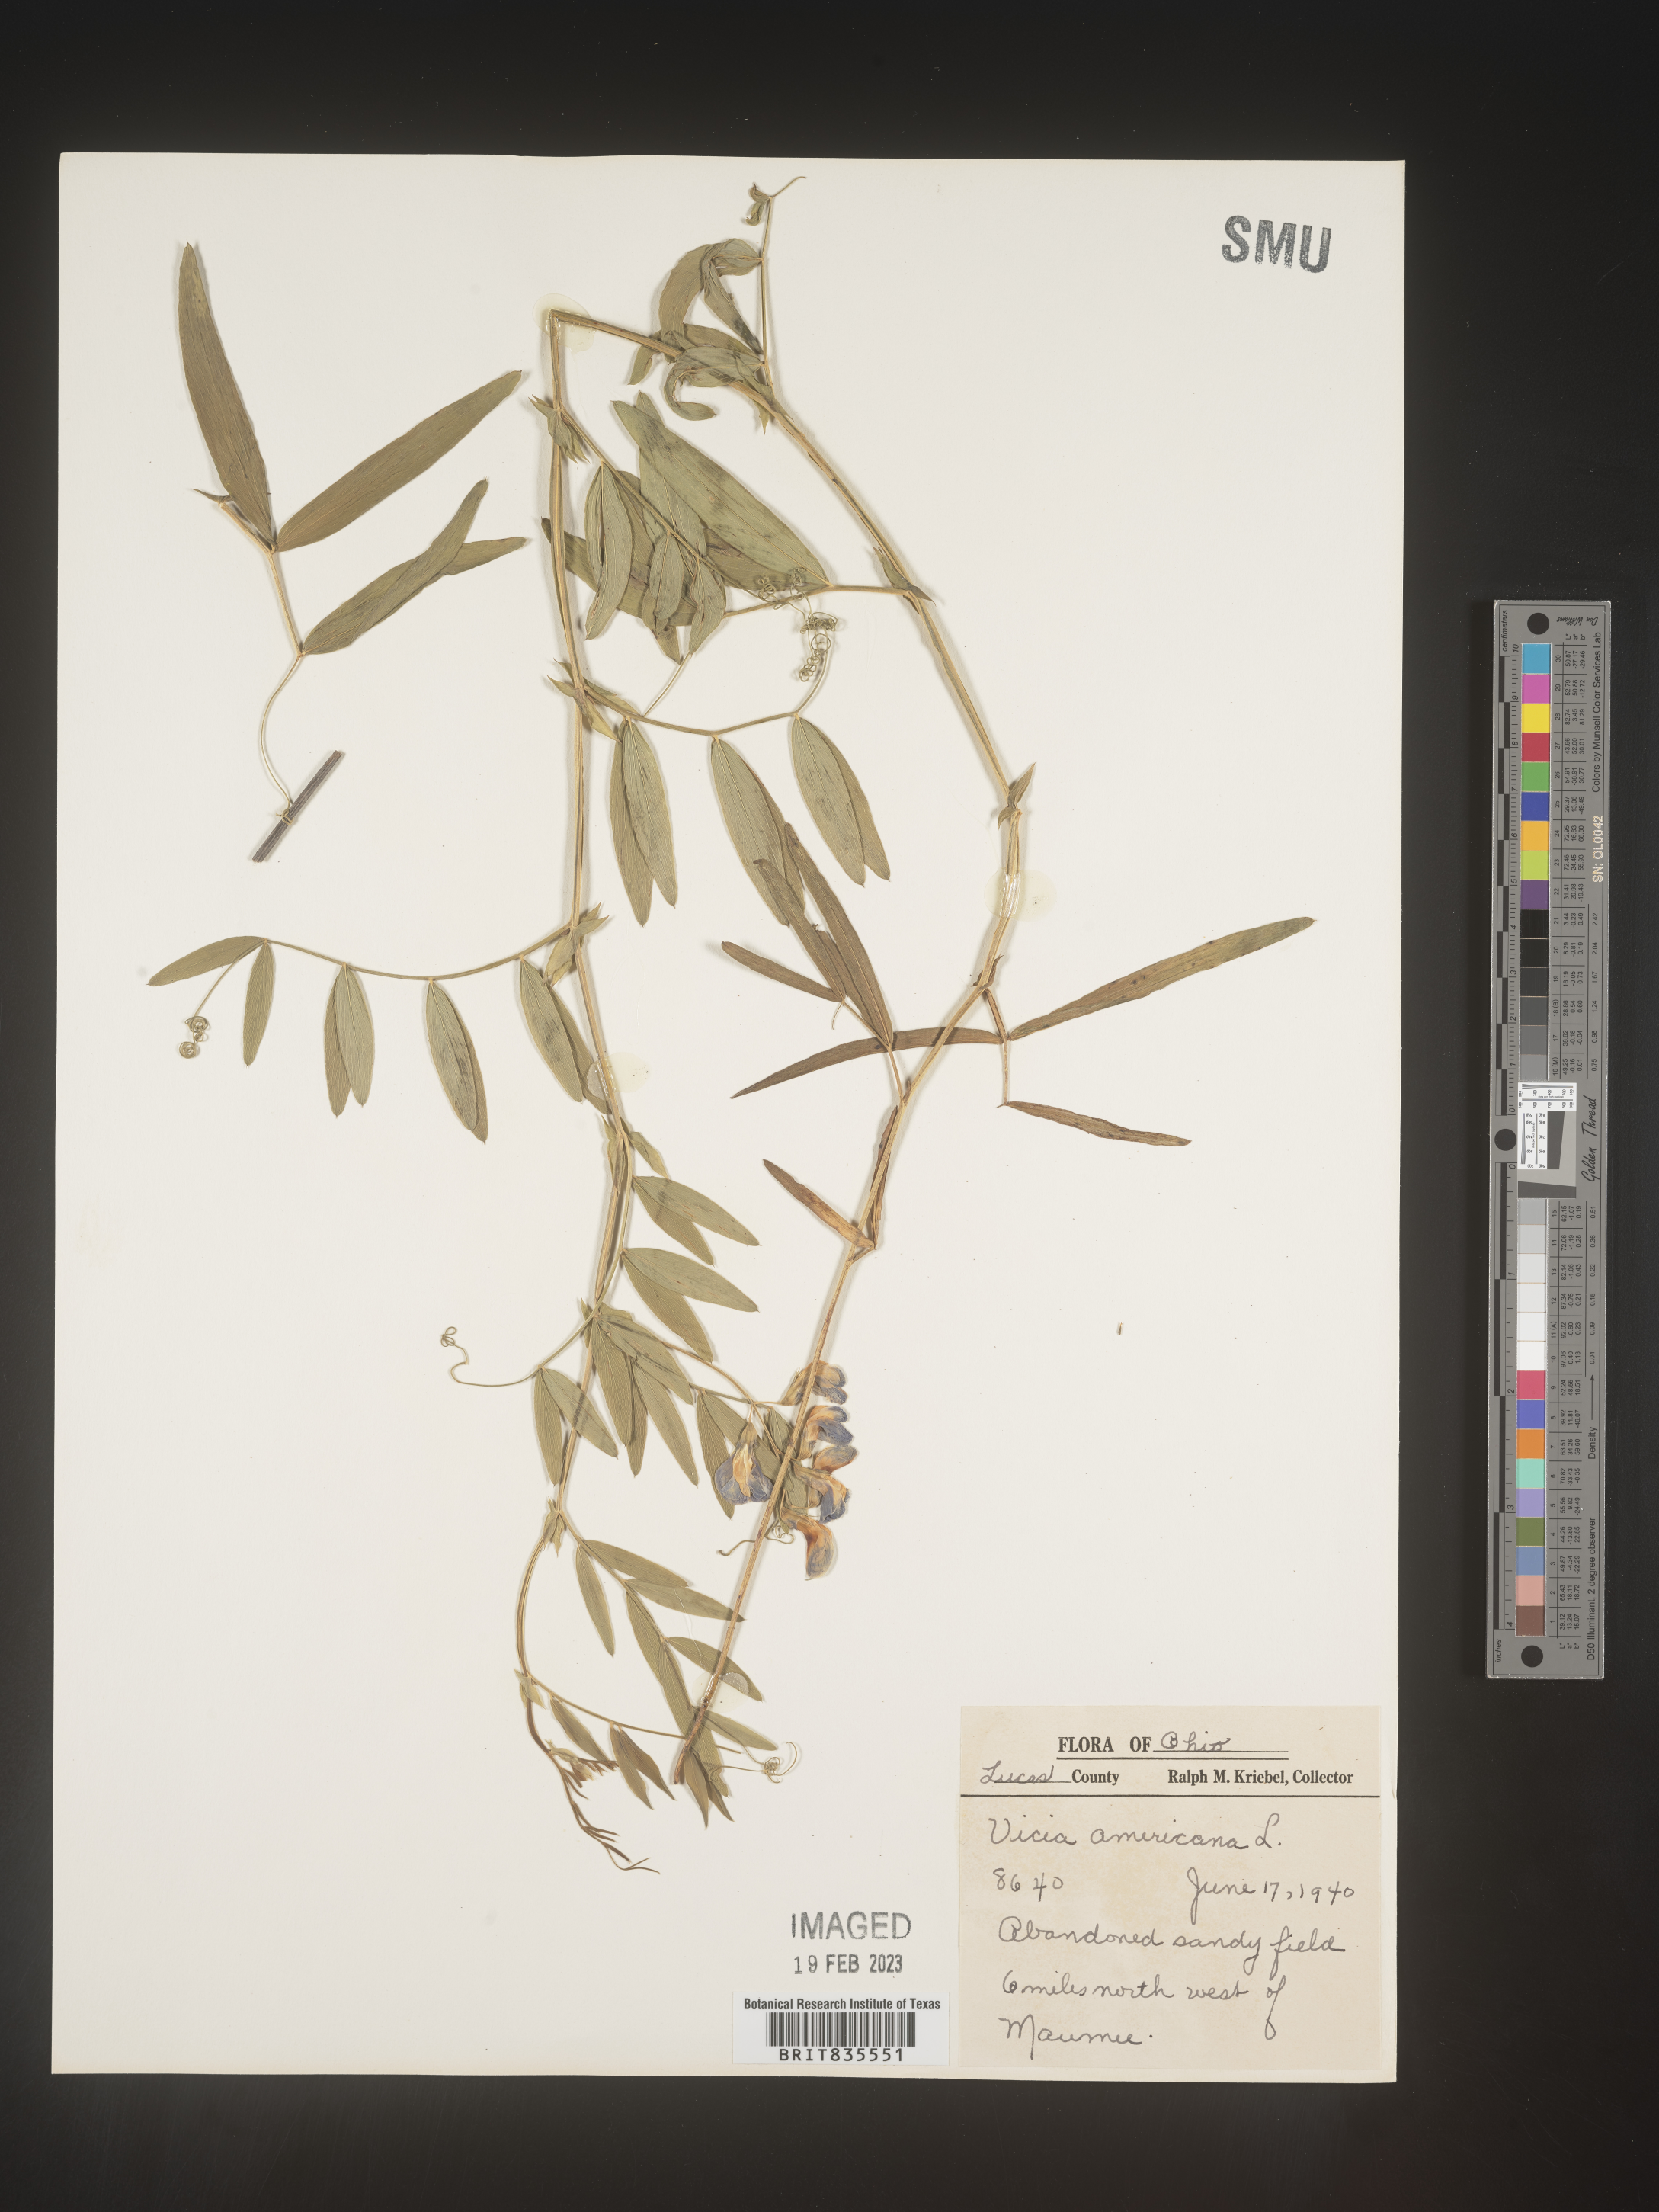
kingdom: Plantae
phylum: Tracheophyta
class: Magnoliopsida
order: Fabales
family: Fabaceae
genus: Vicia
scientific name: Vicia americana
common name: American vetch
